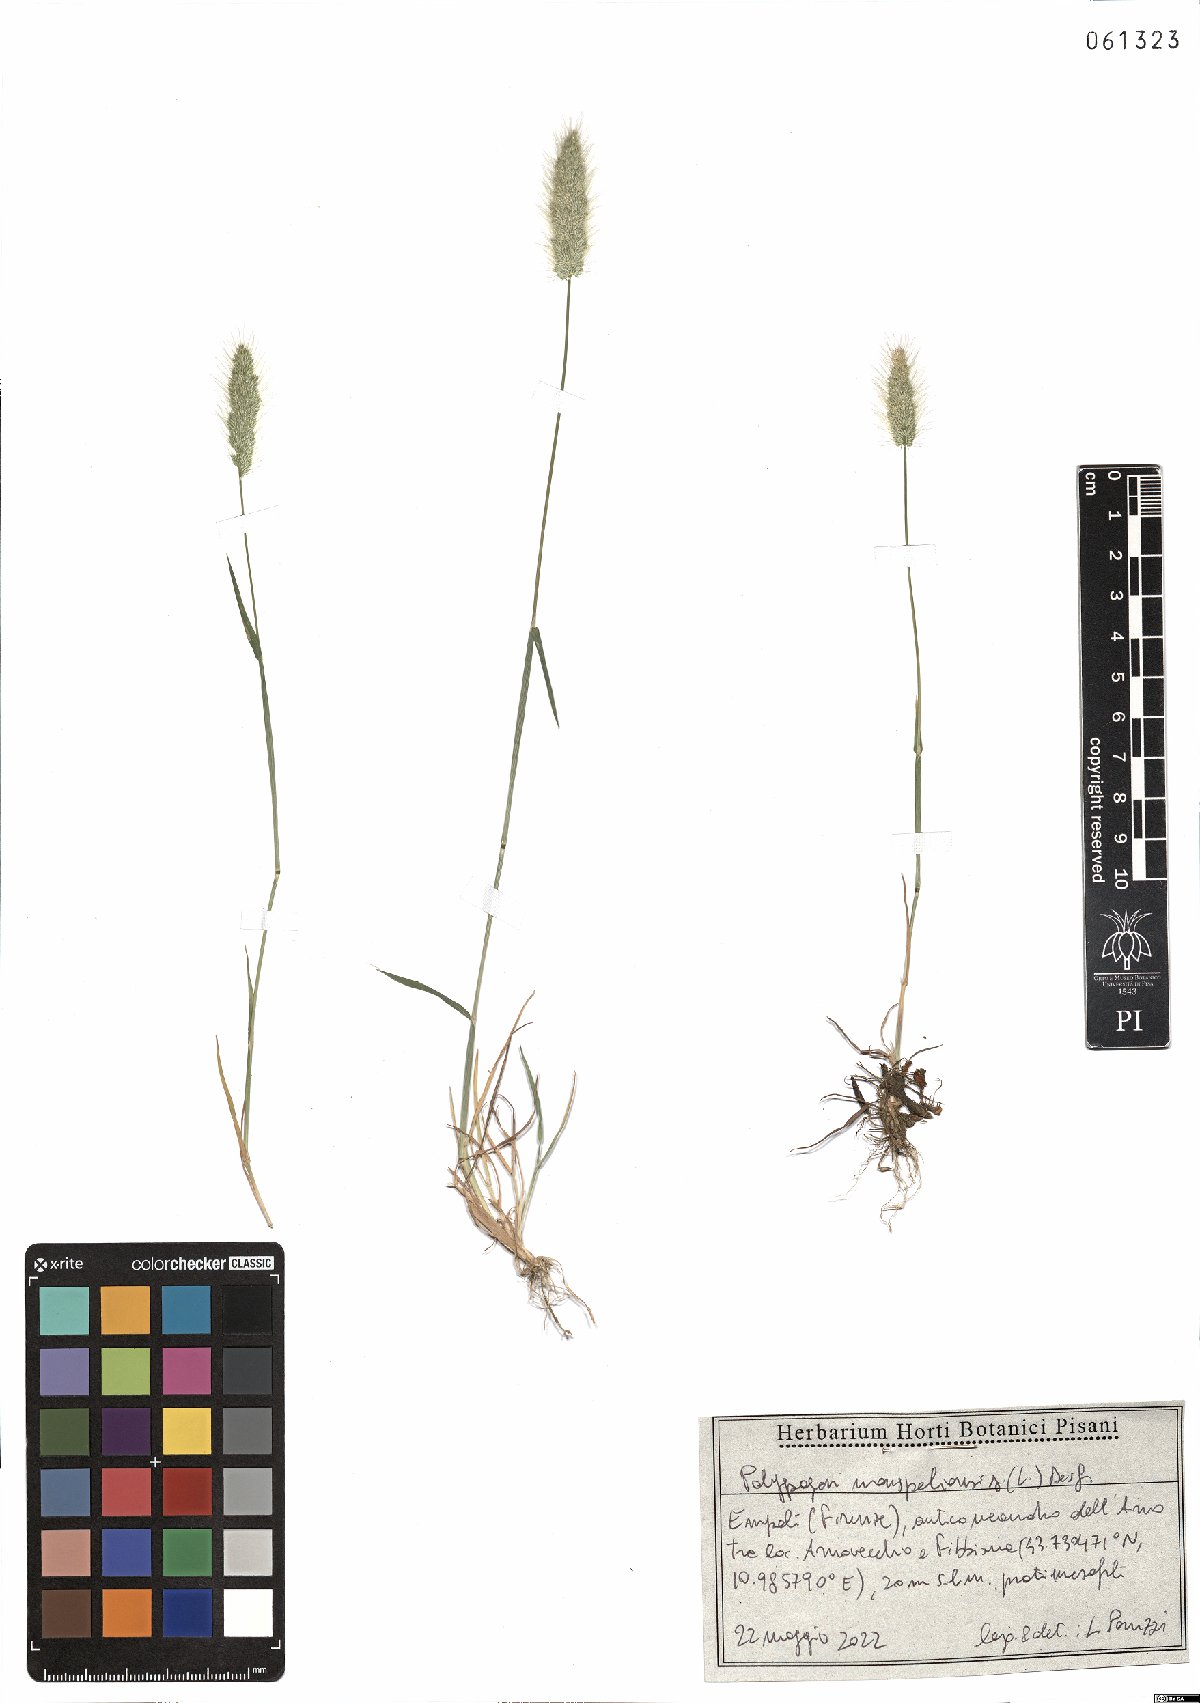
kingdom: Plantae
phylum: Tracheophyta
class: Liliopsida
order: Poales
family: Poaceae
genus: Polypogon
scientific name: Polypogon monspeliensis
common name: Annual rabbitsfoot grass
